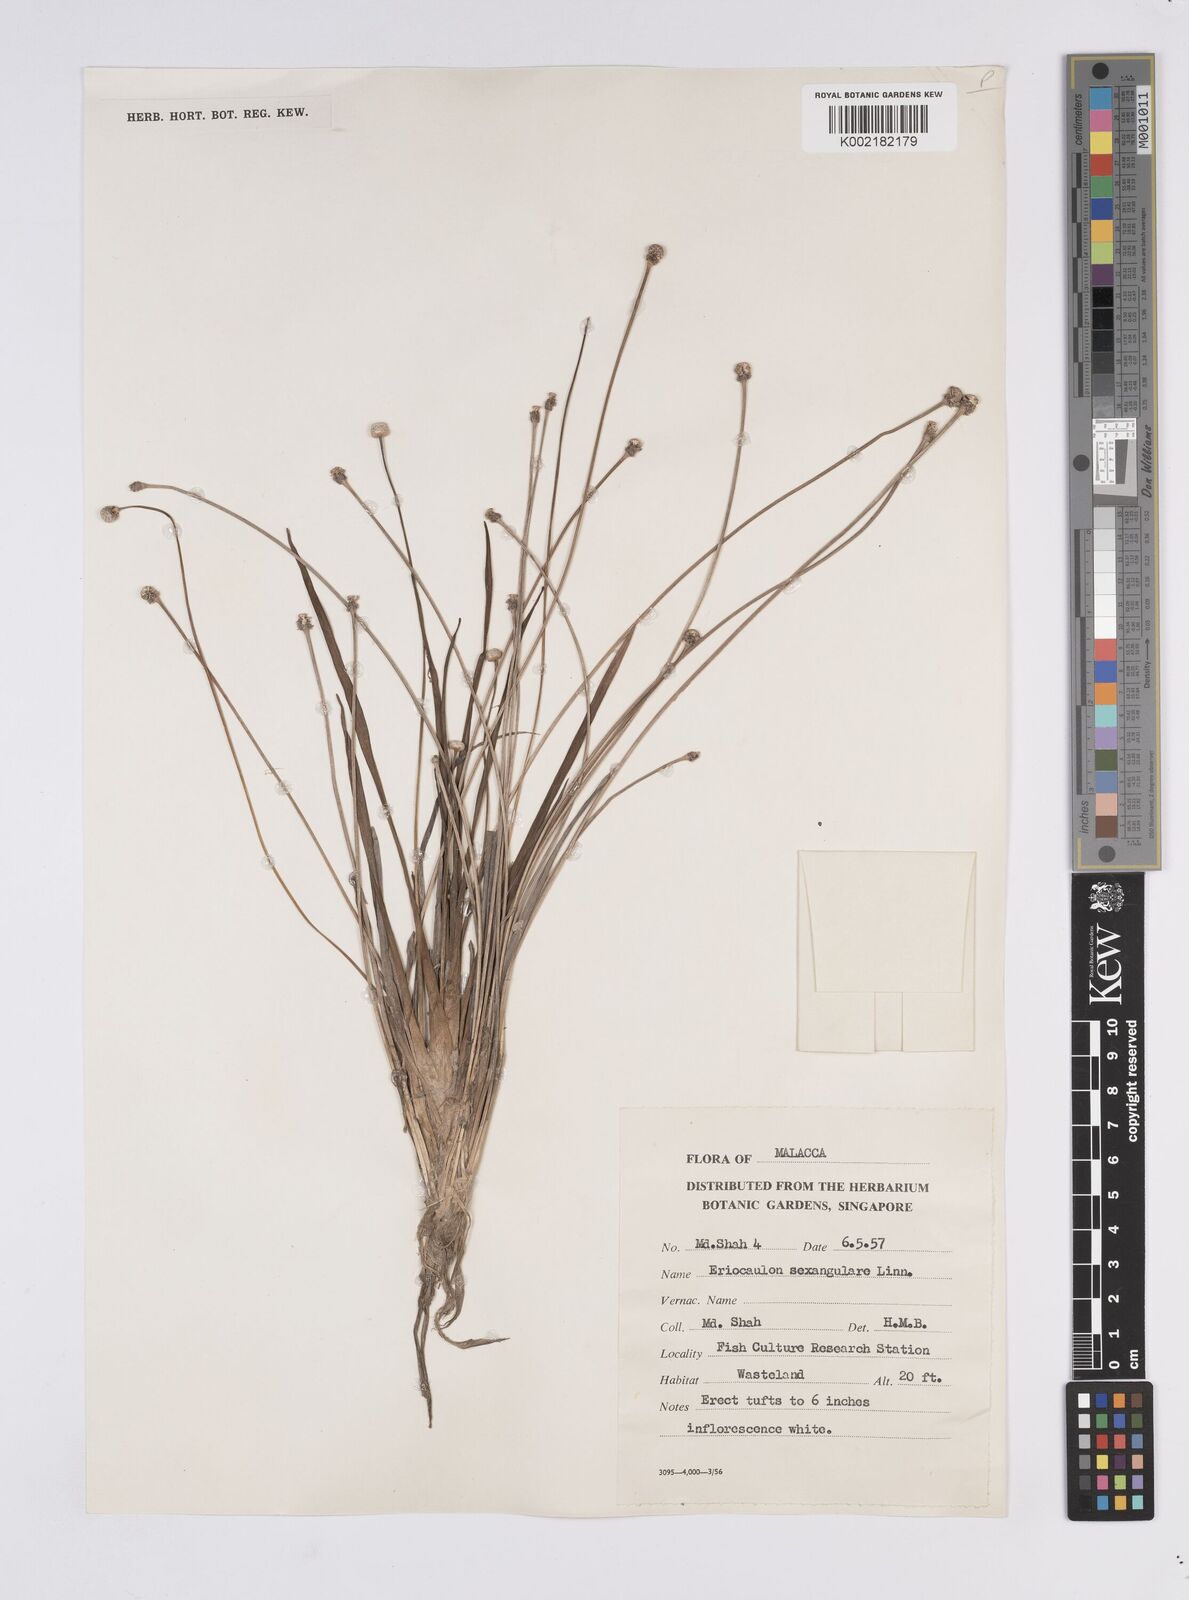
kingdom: Plantae
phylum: Tracheophyta
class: Liliopsida
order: Poales
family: Eriocaulaceae
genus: Eriocaulon
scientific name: Eriocaulon sexangulare
